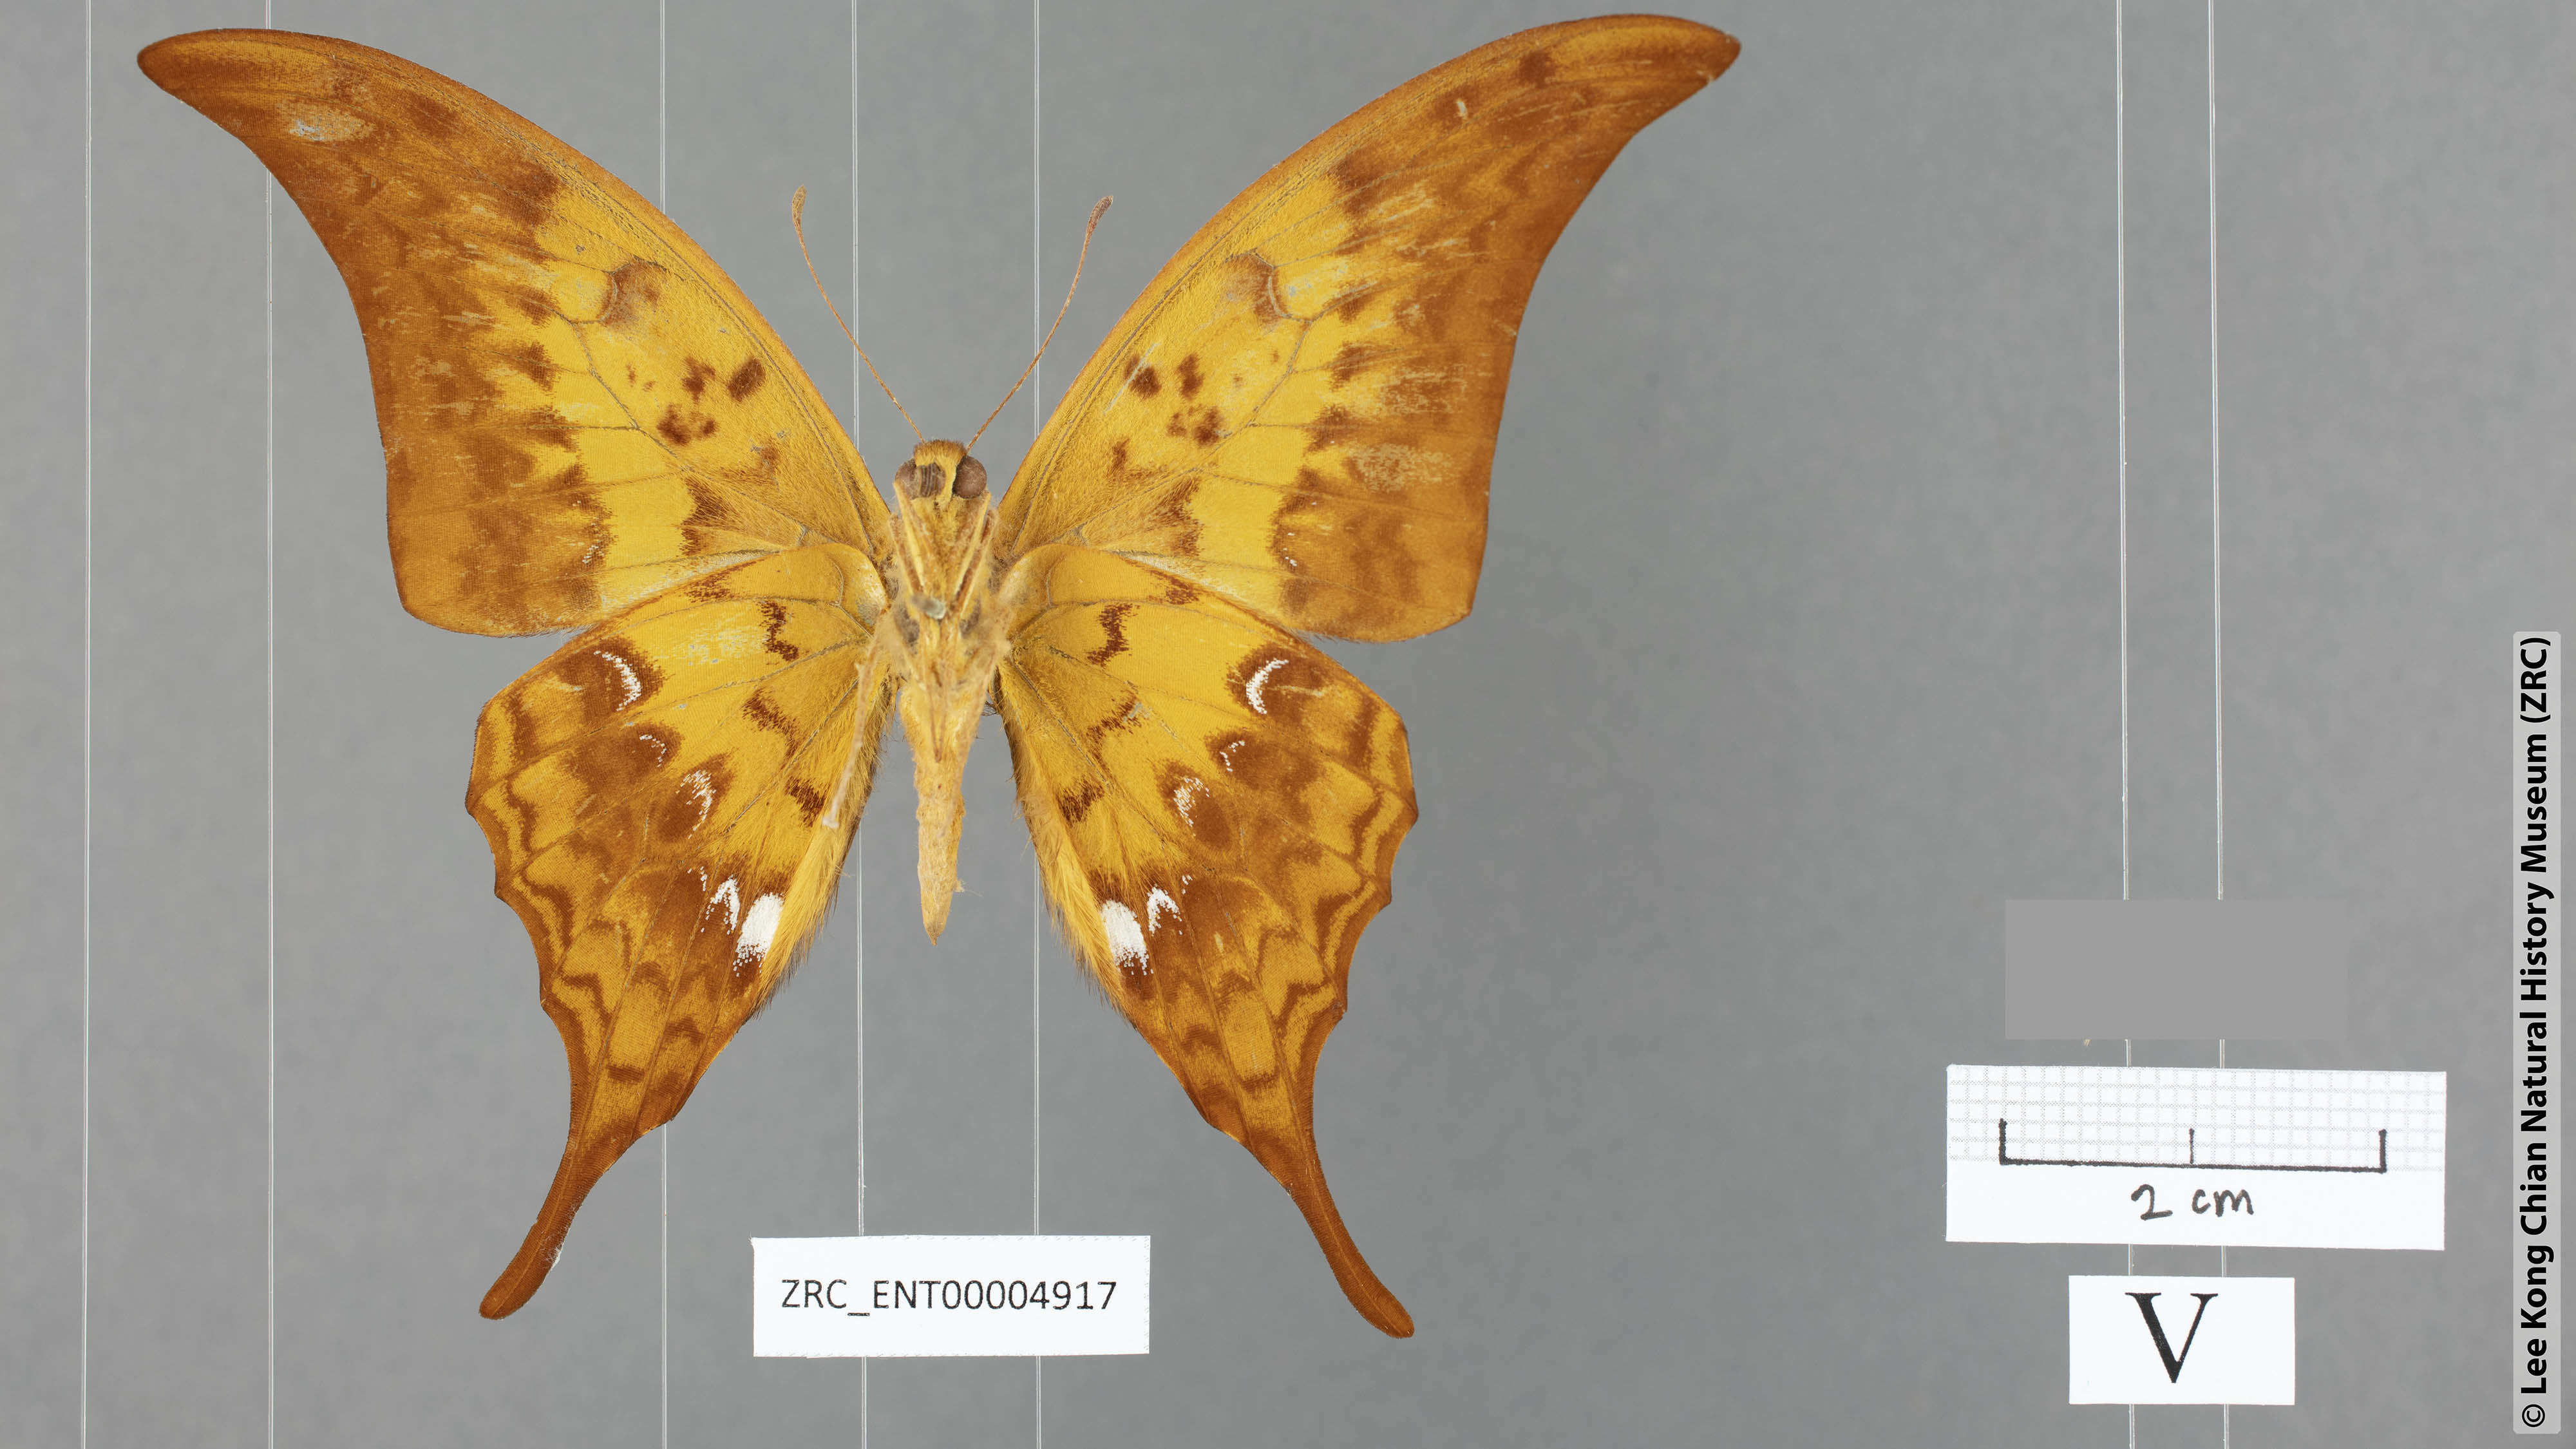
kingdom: Animalia
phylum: Arthropoda
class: Insecta
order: Lepidoptera
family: Papilionidae
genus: Meandrusa
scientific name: Meandrusa payeni
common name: Outlet sword
